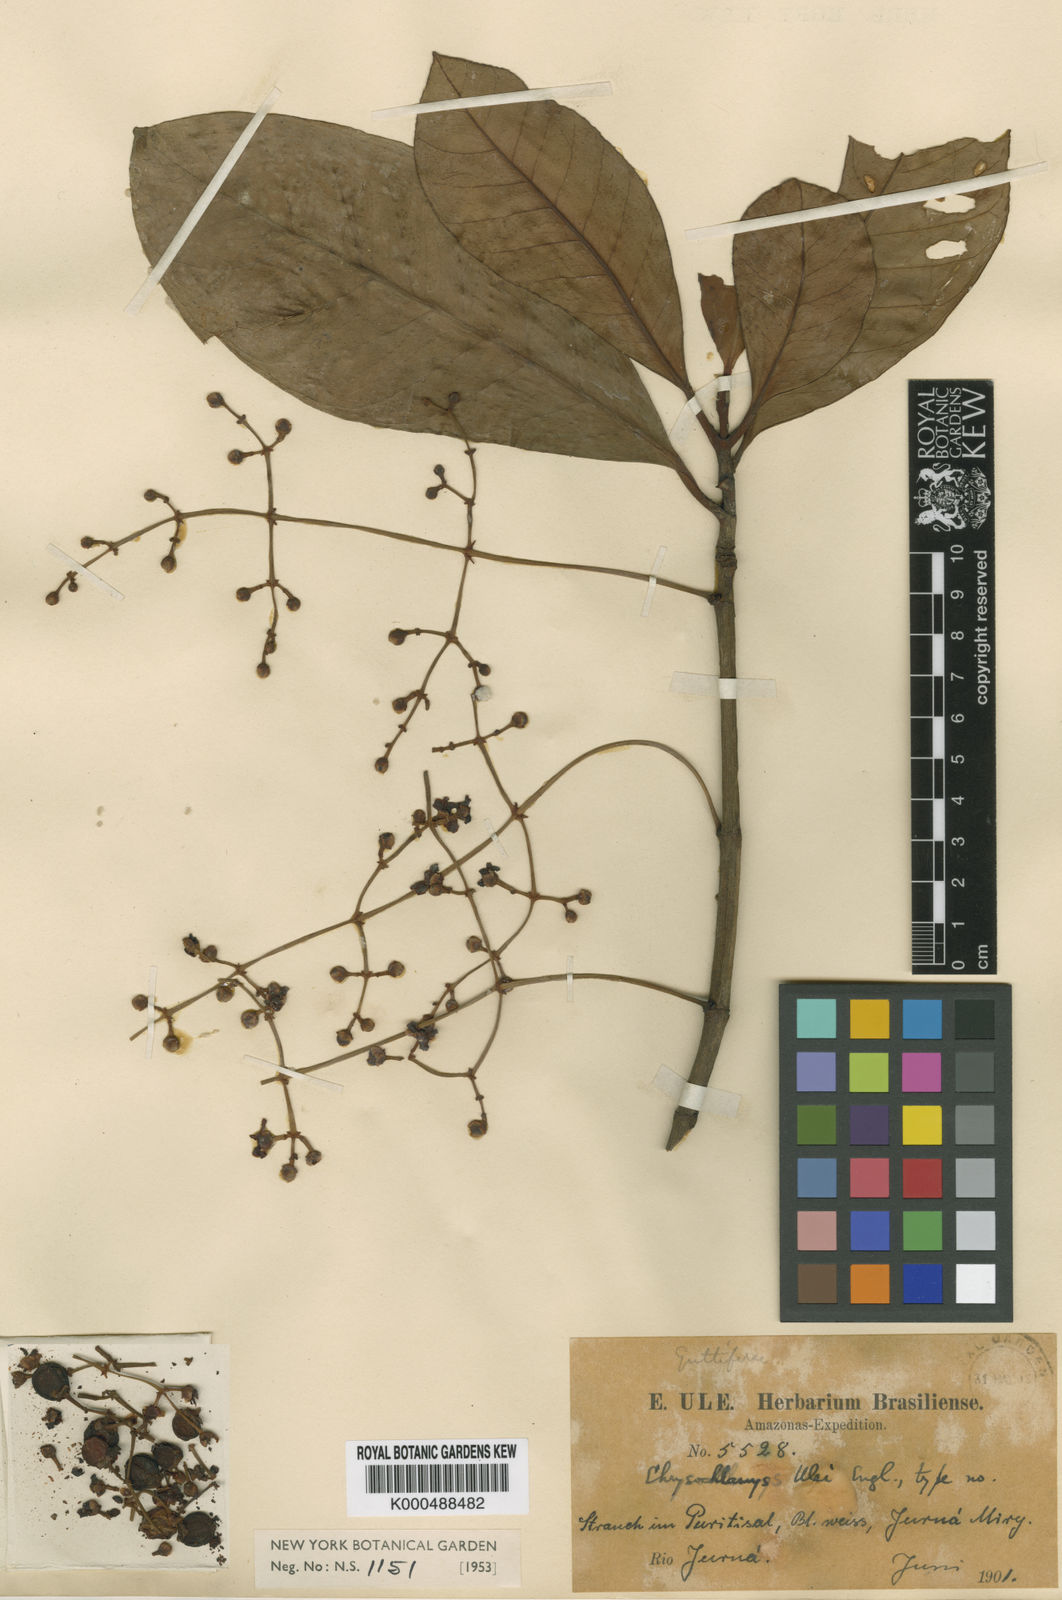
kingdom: Plantae
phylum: Tracheophyta
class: Magnoliopsida
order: Malpighiales
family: Clusiaceae
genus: Chrysochlamys
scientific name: Chrysochlamys ulei
